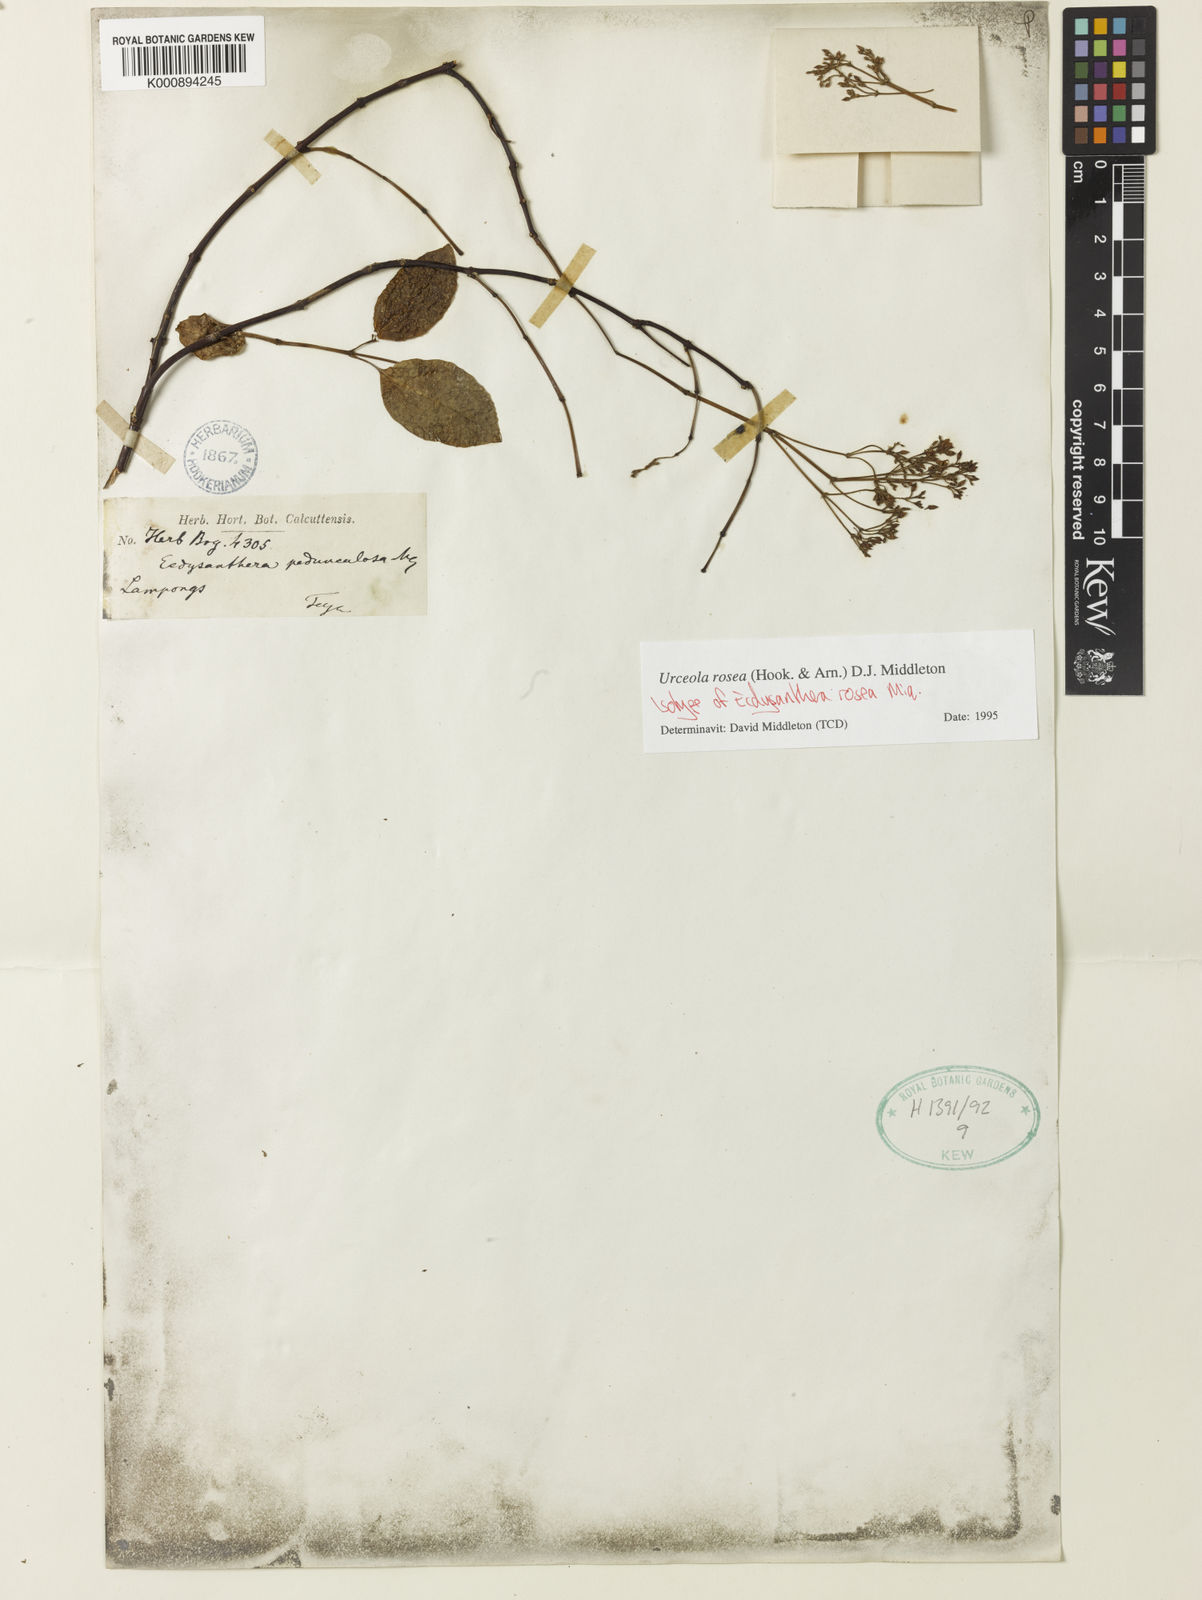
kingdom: Plantae
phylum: Tracheophyta
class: Magnoliopsida
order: Gentianales
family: Apocynaceae
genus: Urceola
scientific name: Urceola rosea
